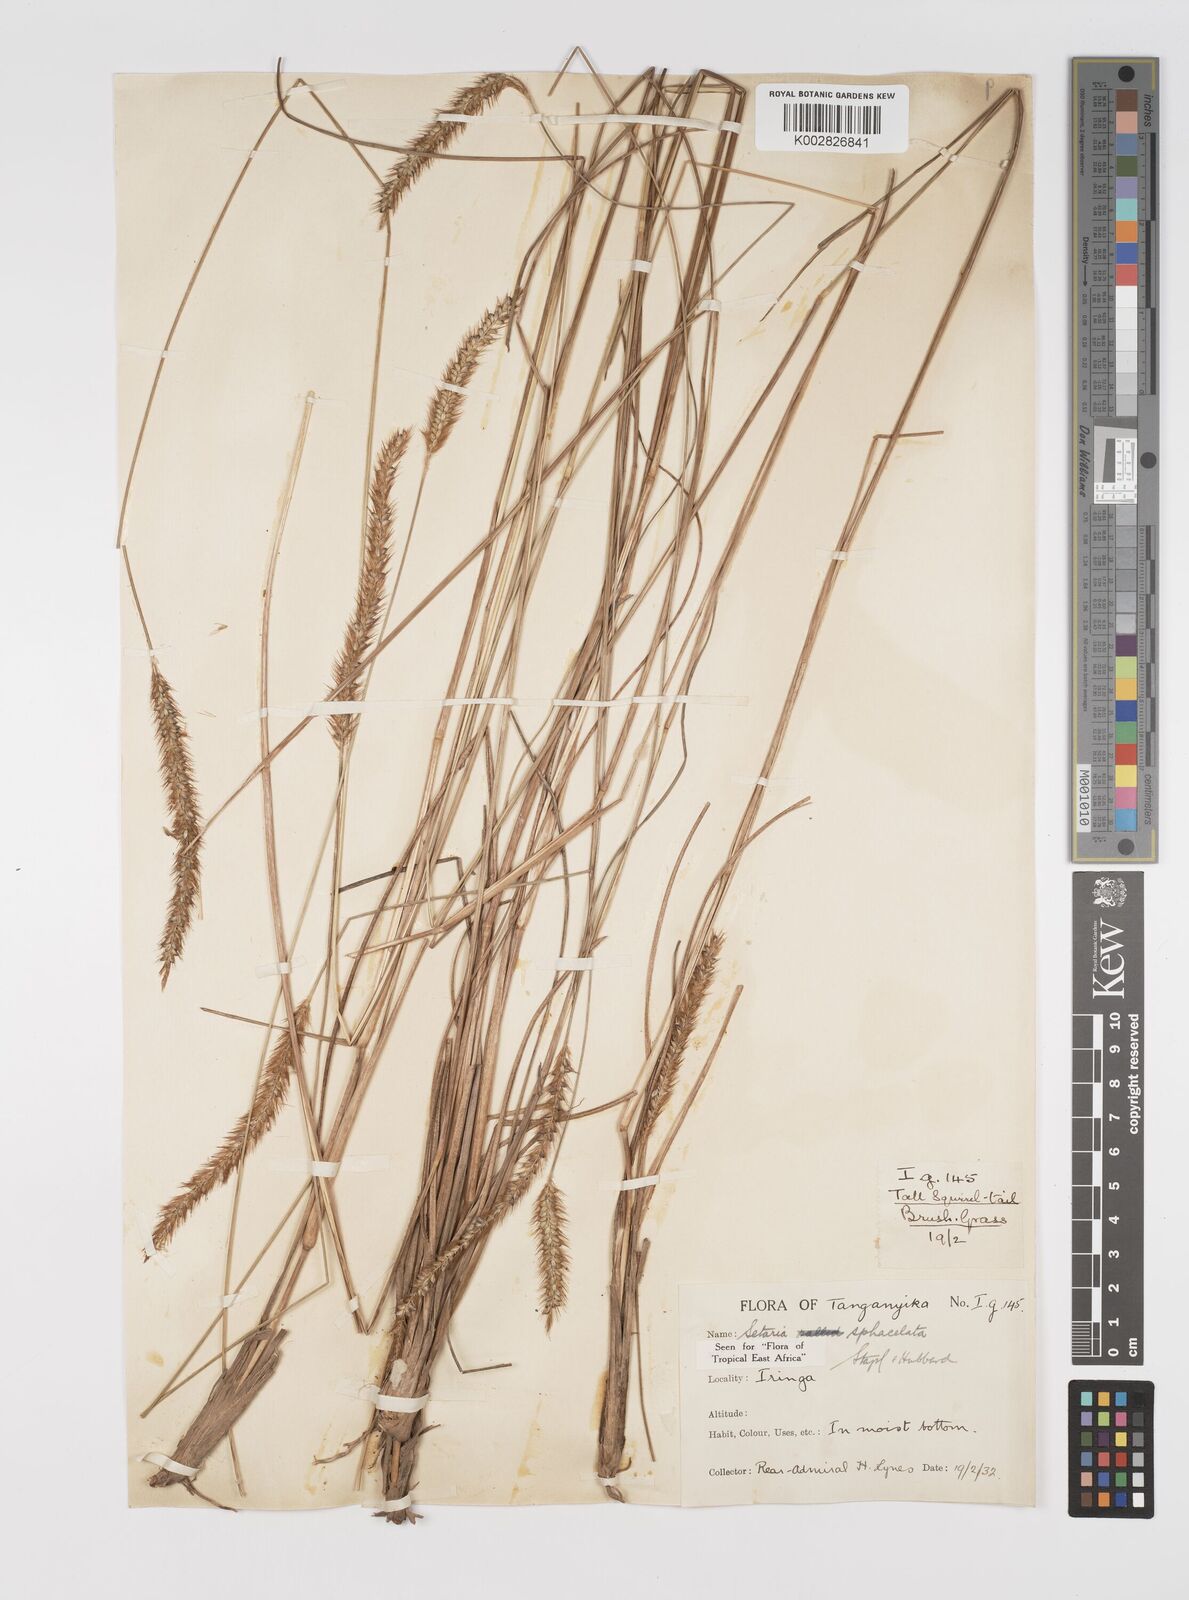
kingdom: Plantae
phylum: Tracheophyta
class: Liliopsida
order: Poales
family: Poaceae
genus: Setaria
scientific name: Setaria sphacelata
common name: African bristlegrass
